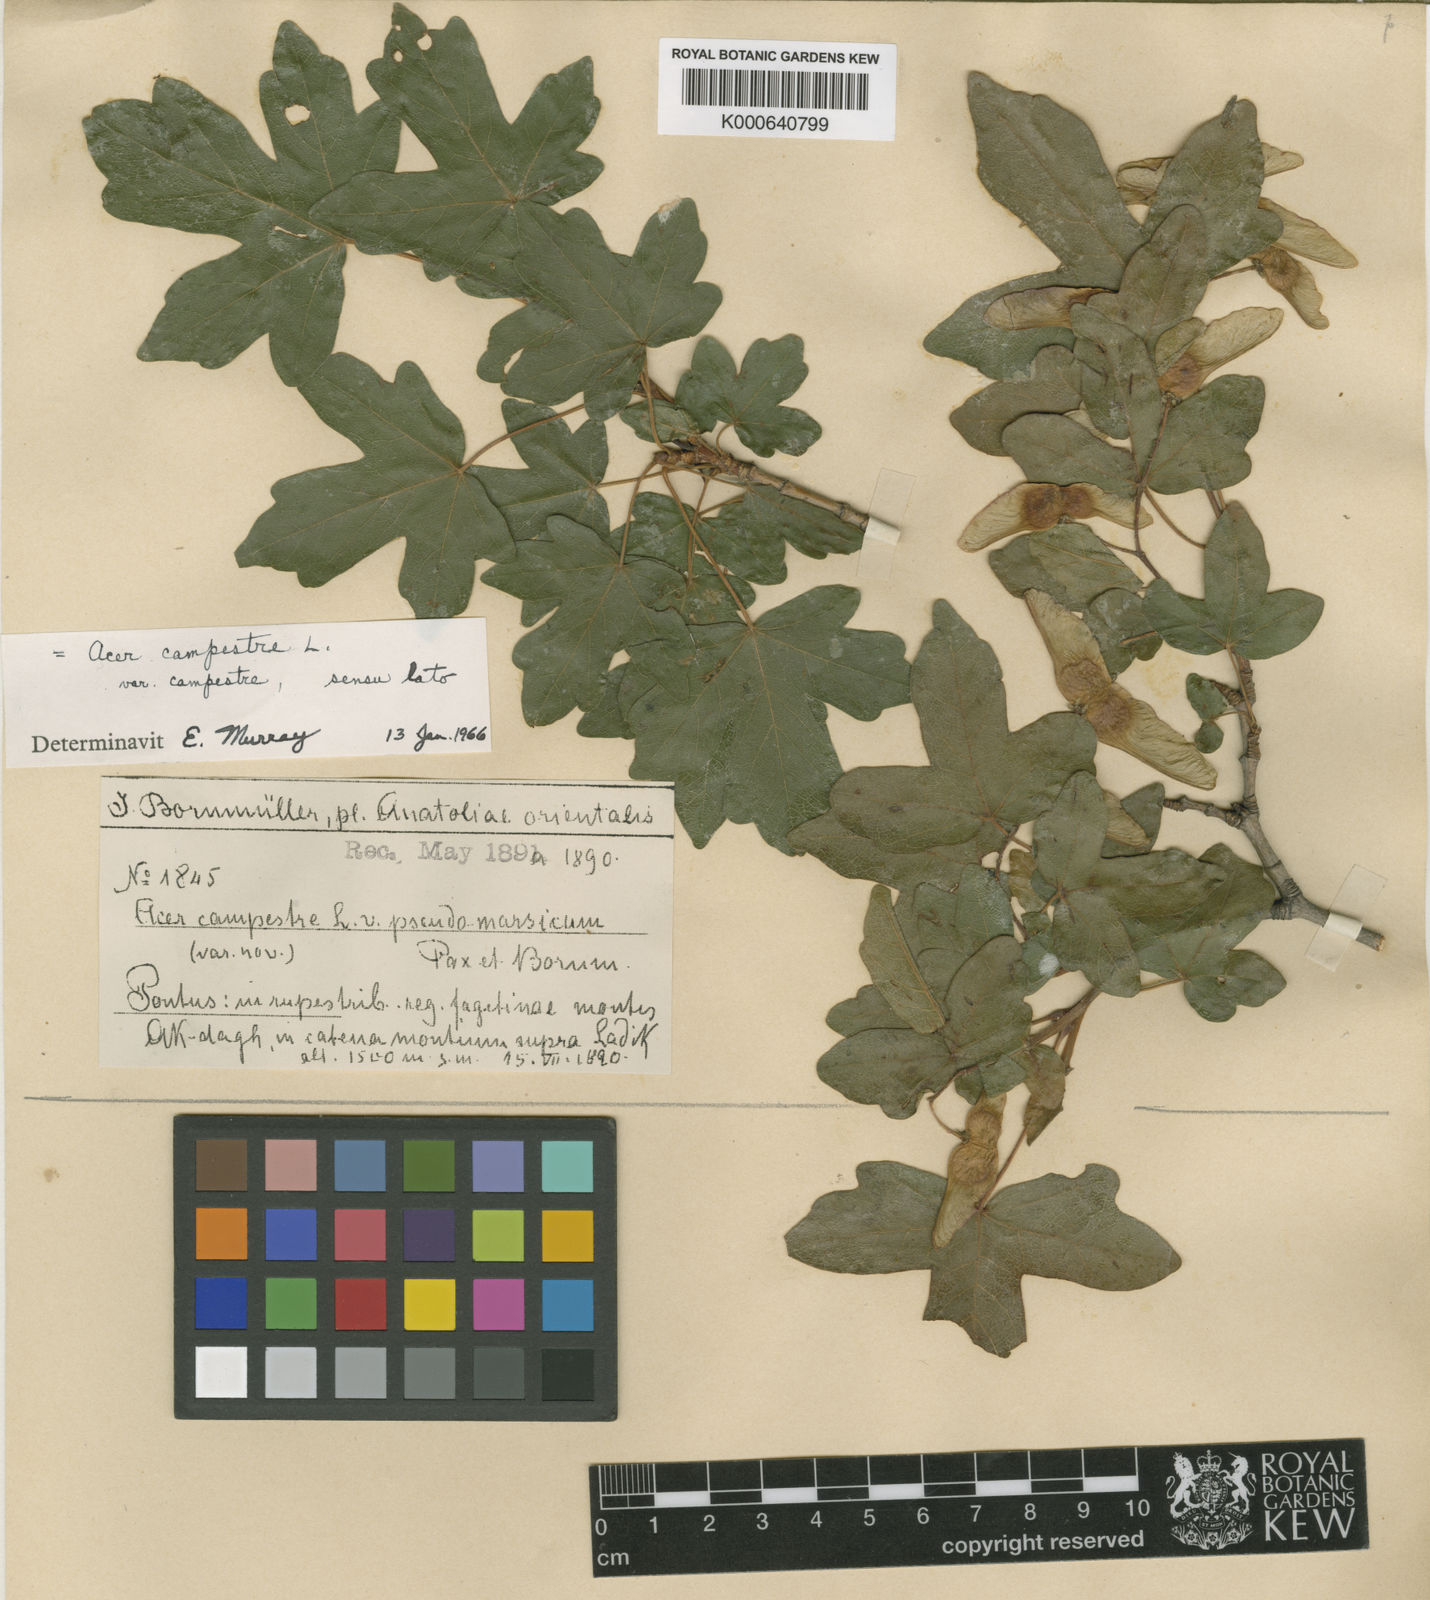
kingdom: Plantae
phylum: Tracheophyta
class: Magnoliopsida
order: Sapindales
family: Sapindaceae
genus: Acer
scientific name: Acer campestre
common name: Field maple
